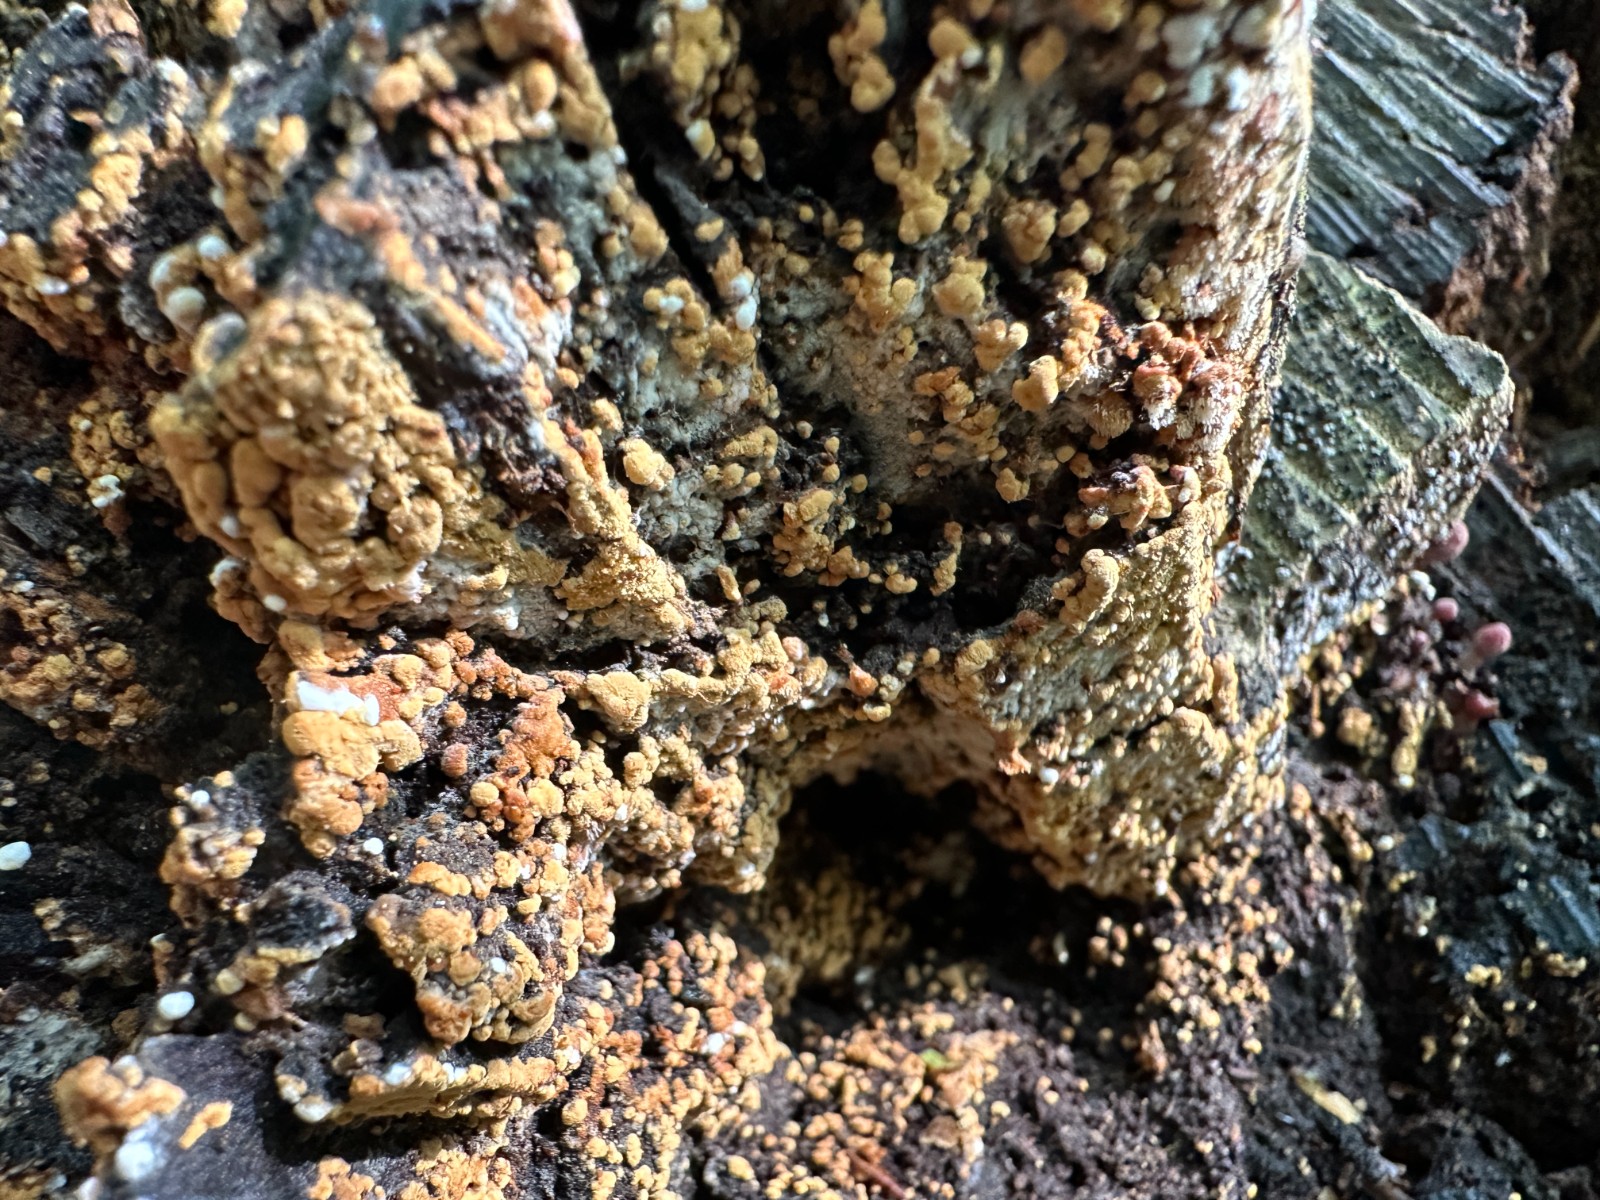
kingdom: Fungi
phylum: Basidiomycota
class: Agaricomycetes
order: Cantharellales
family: Botryobasidiaceae
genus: Botryobasidium
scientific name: Botryobasidium aureum
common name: gylden spindhinde
